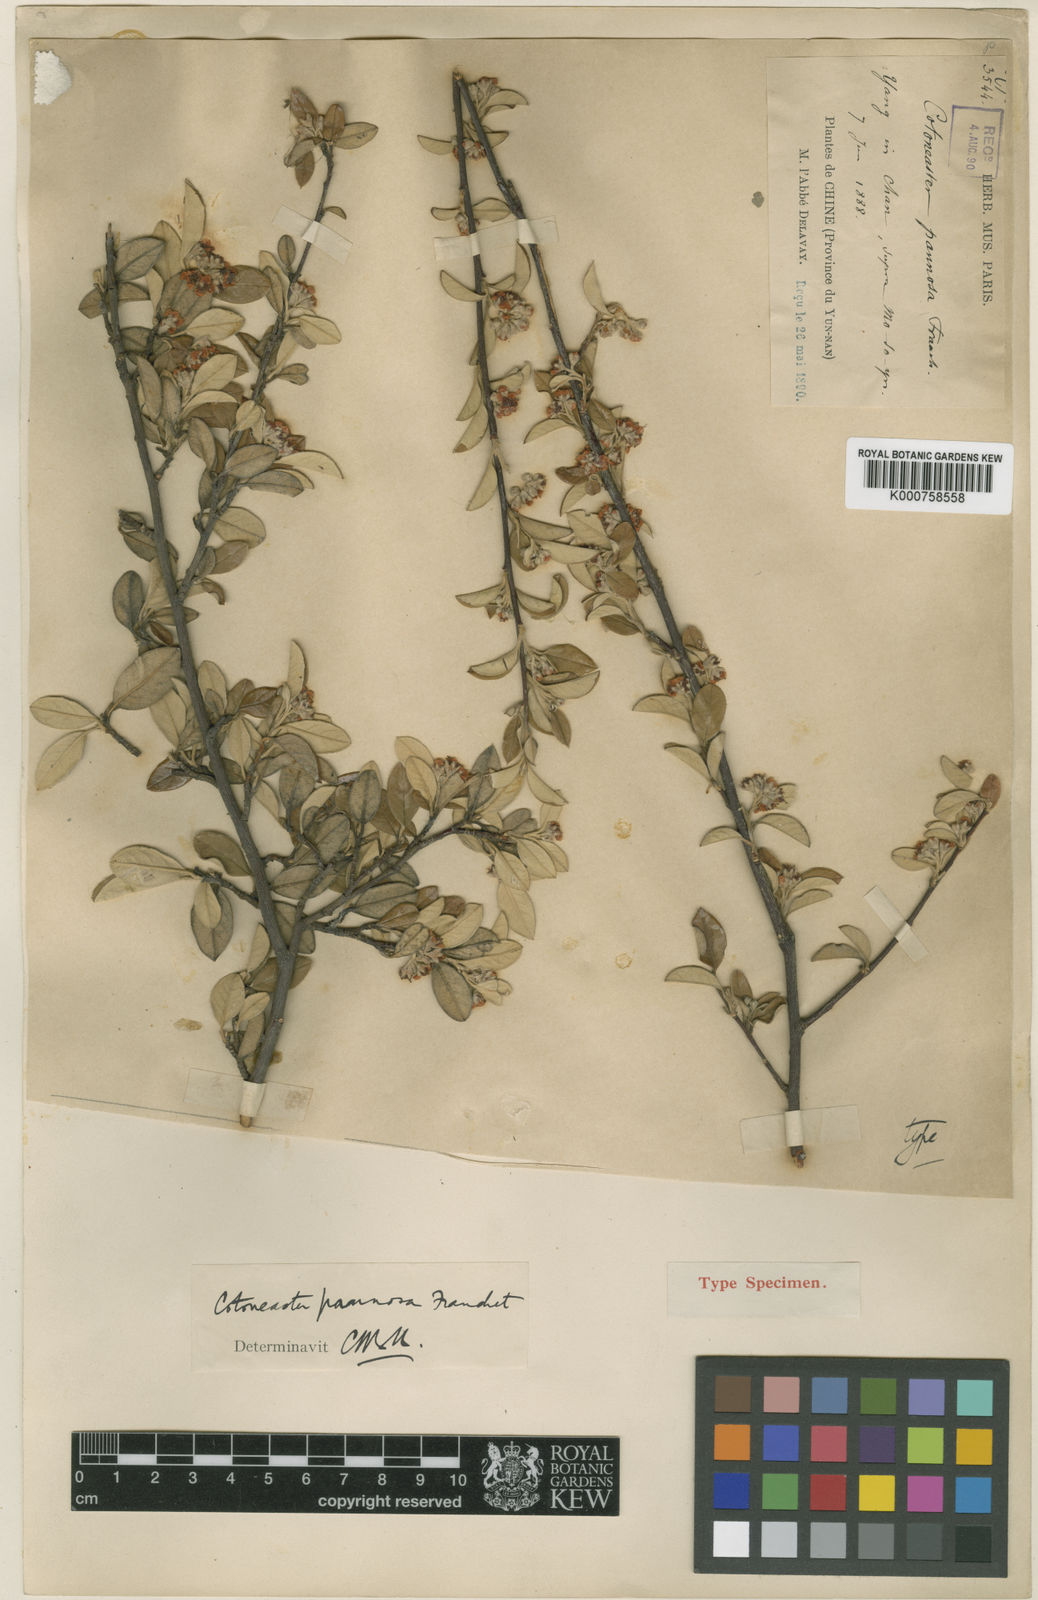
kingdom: Plantae
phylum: Tracheophyta
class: Magnoliopsida
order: Rosales
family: Rosaceae
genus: Cotoneaster
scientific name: Cotoneaster pannosus
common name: Silverleaf cotoneaster
